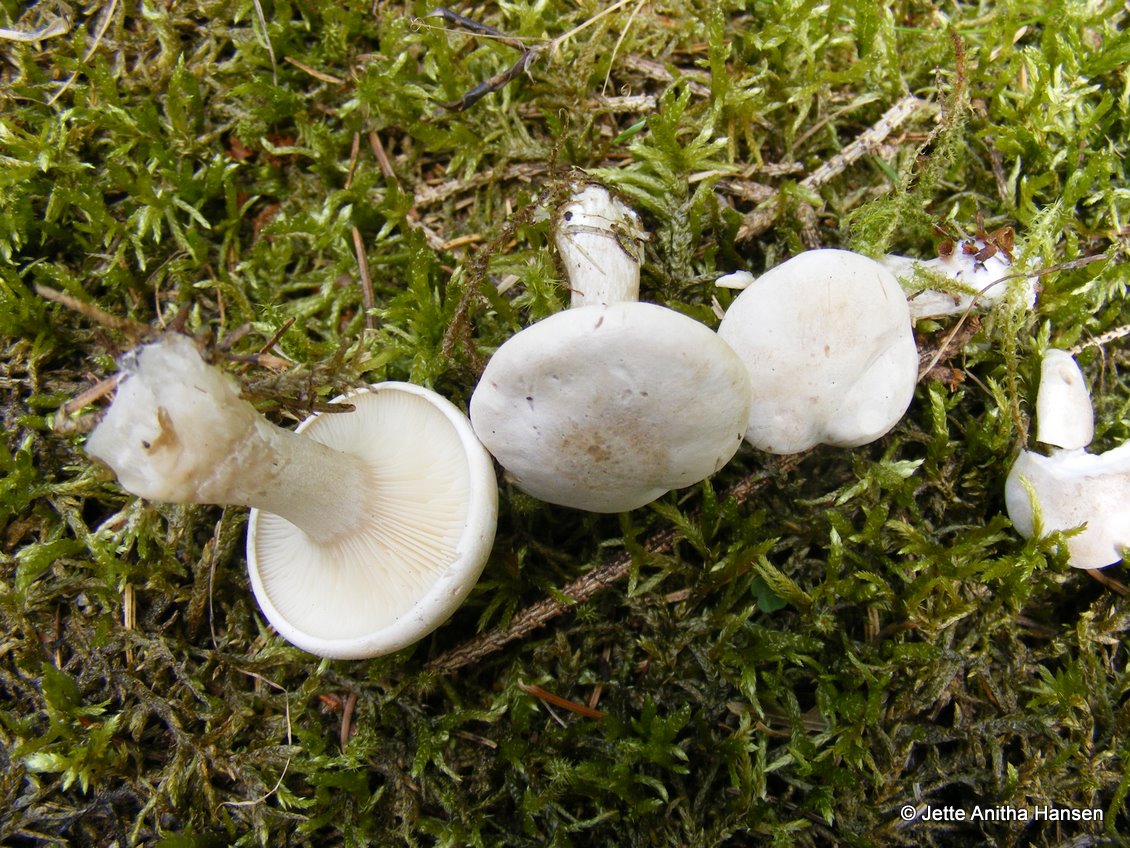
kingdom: Fungi
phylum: Basidiomycota
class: Agaricomycetes
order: Agaricales
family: Entolomataceae
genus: Clitopilus
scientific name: Clitopilus prunulus
